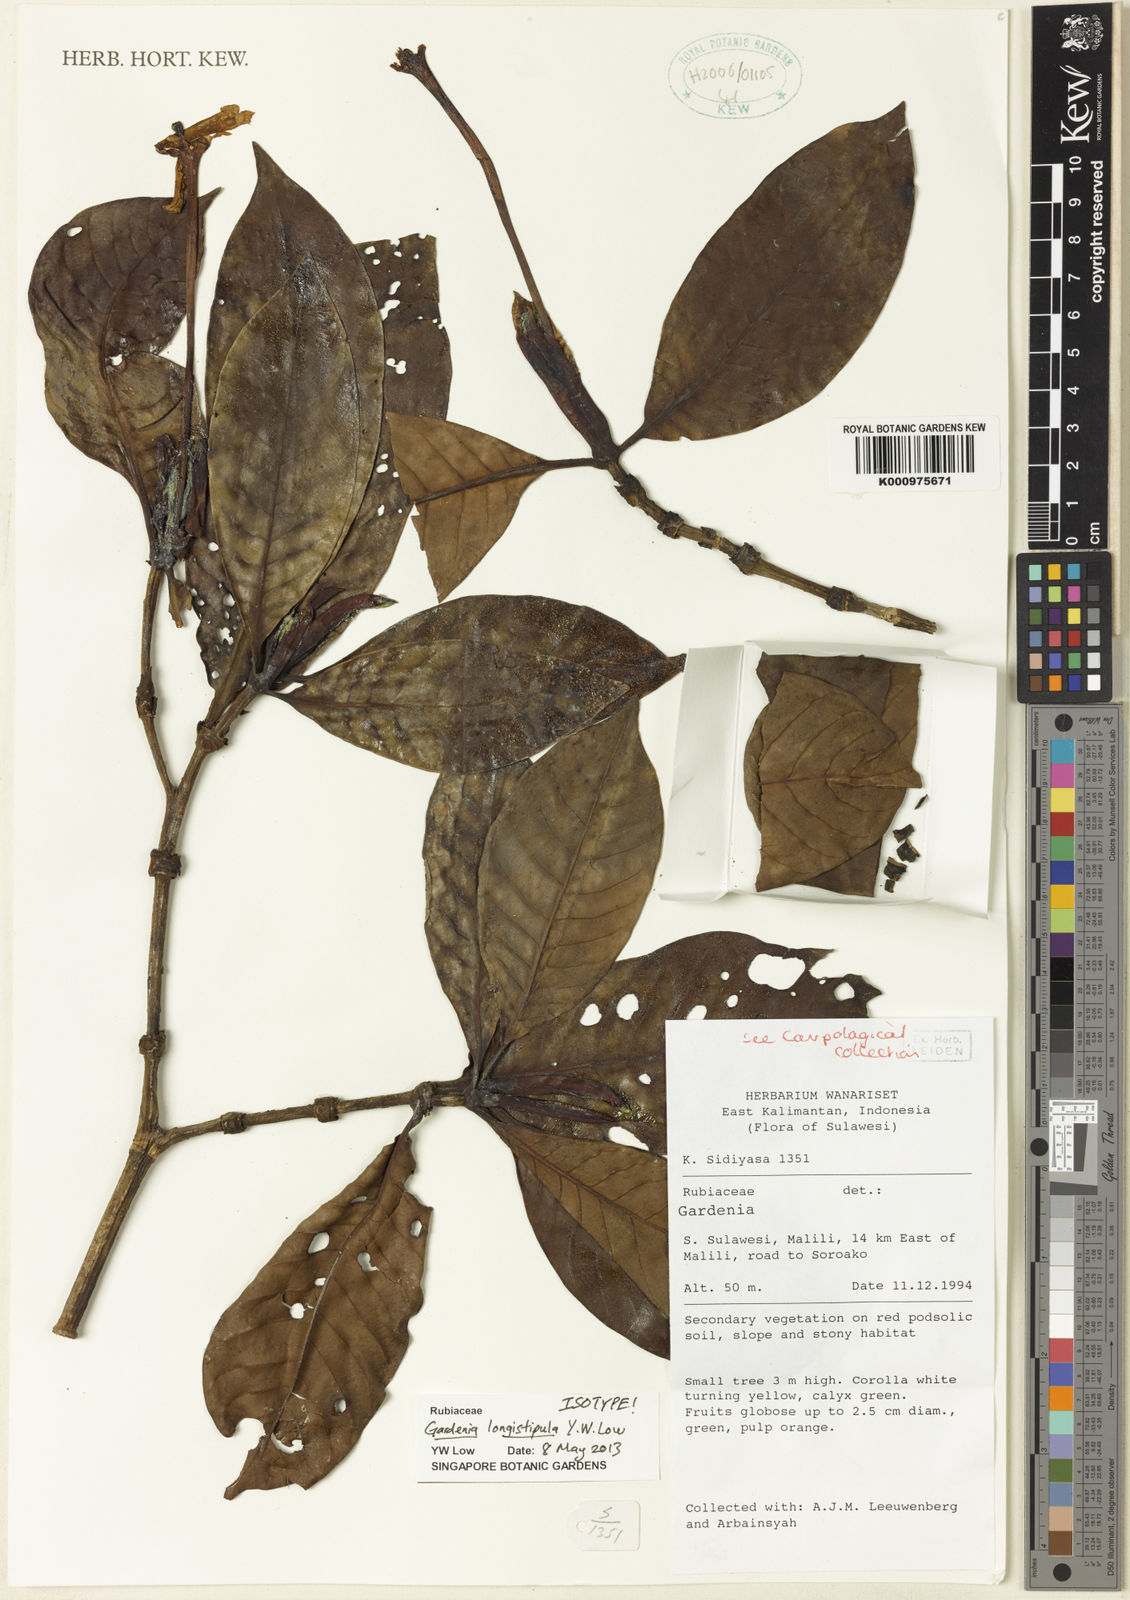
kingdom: Plantae
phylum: Tracheophyta
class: Magnoliopsida
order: Gentianales
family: Rubiaceae
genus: Gardenia
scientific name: Gardenia longistipula
